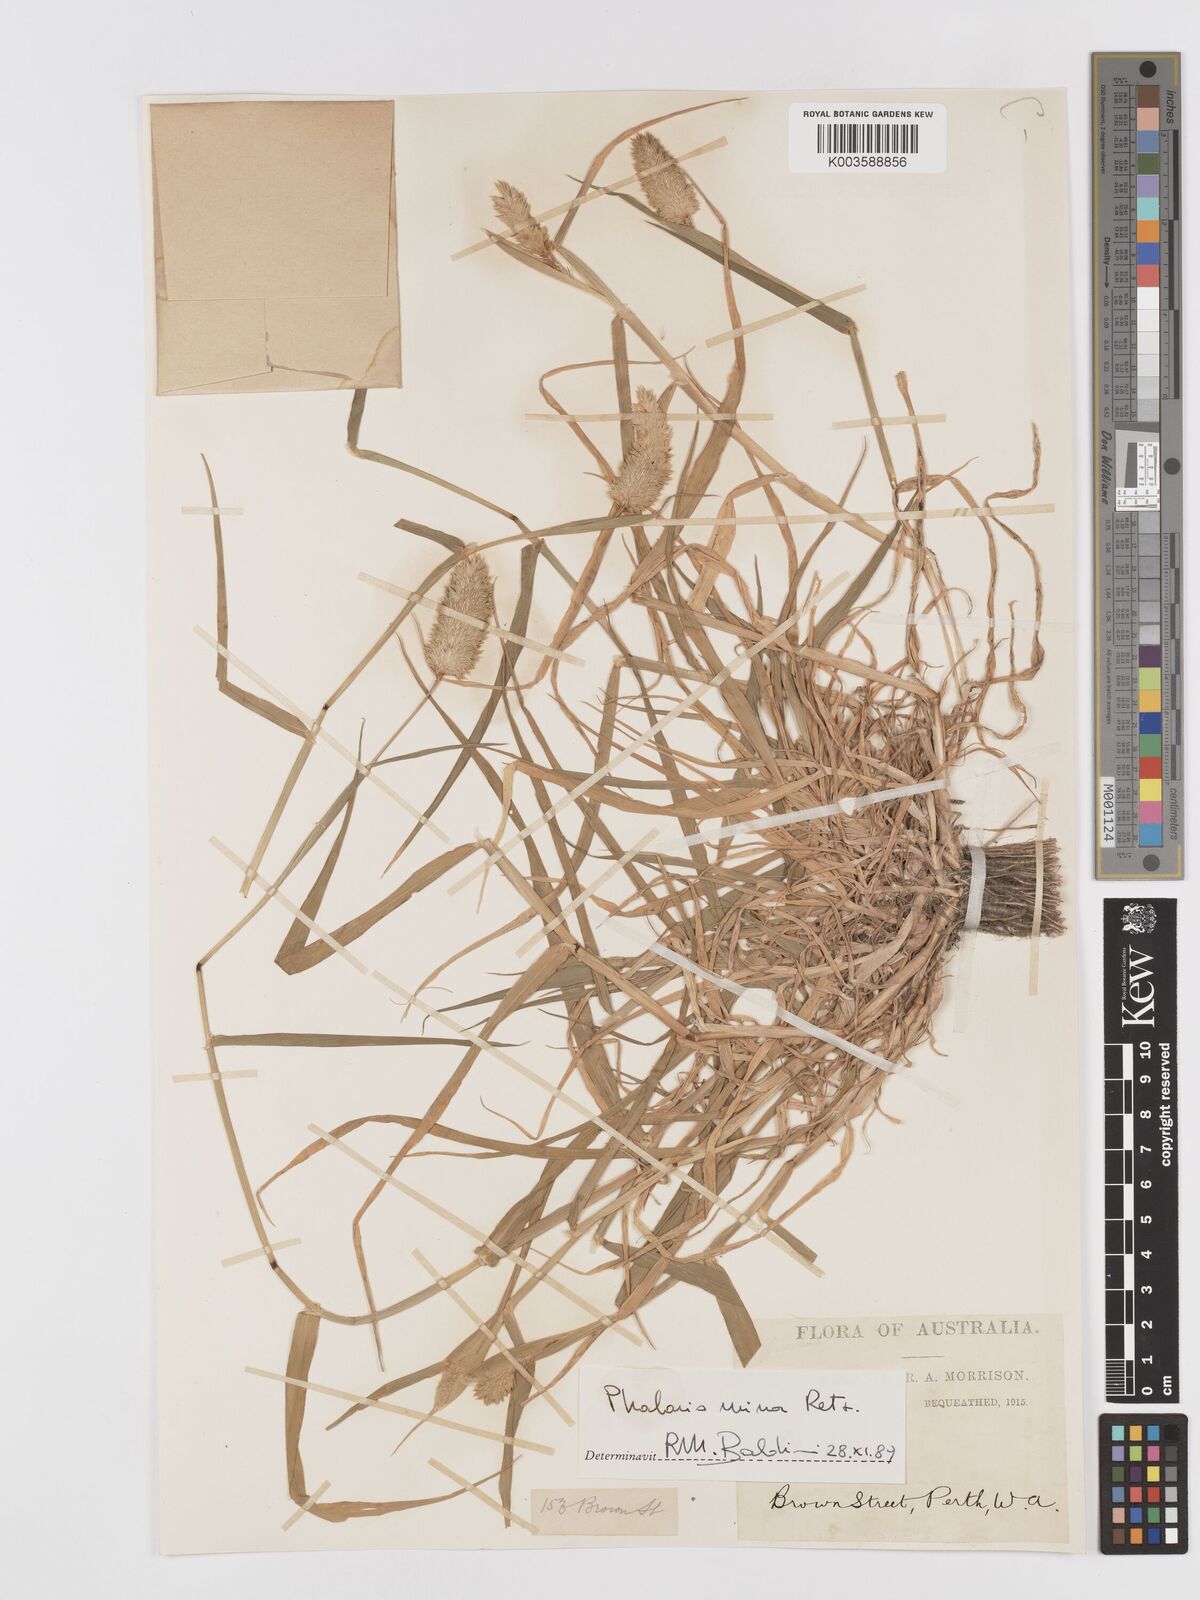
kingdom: Plantae
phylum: Tracheophyta
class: Liliopsida
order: Poales
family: Poaceae
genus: Phalaris
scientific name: Phalaris minor
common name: Littleseed canarygrass
